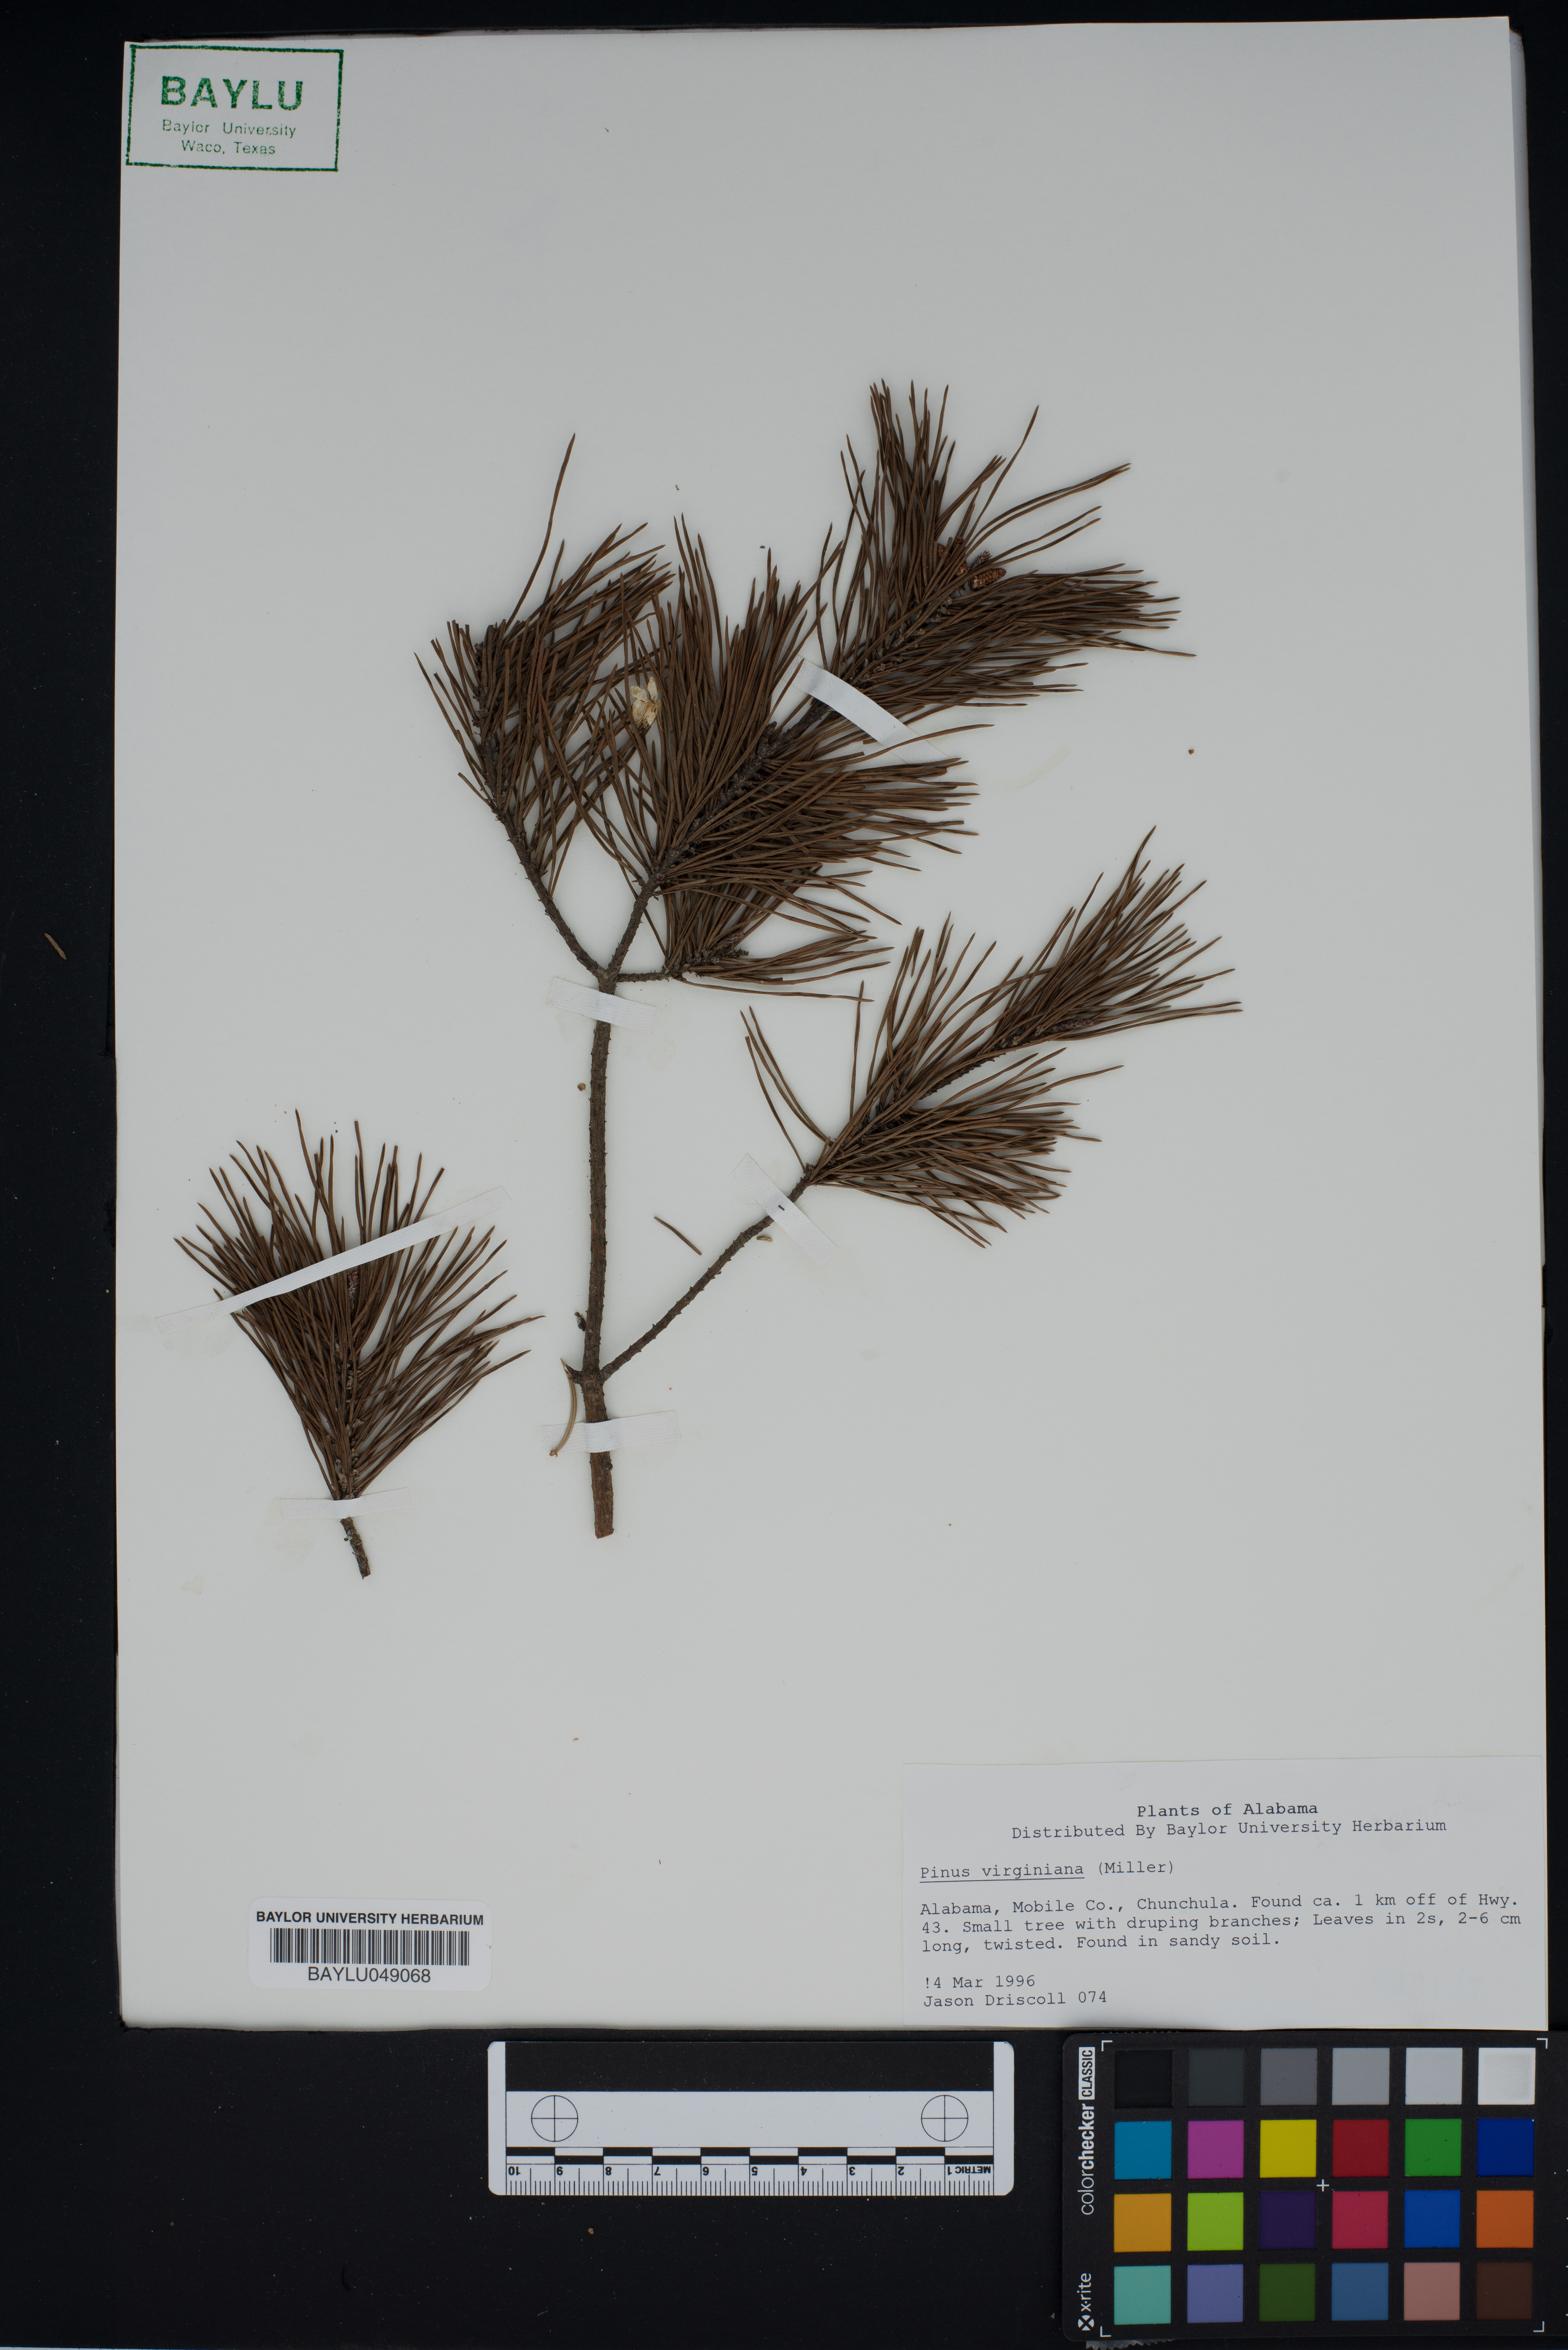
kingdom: Plantae
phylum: Tracheophyta
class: Pinopsida
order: Pinales
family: Pinaceae
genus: Pinus
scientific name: Pinus virginiana
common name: Scrub pine
